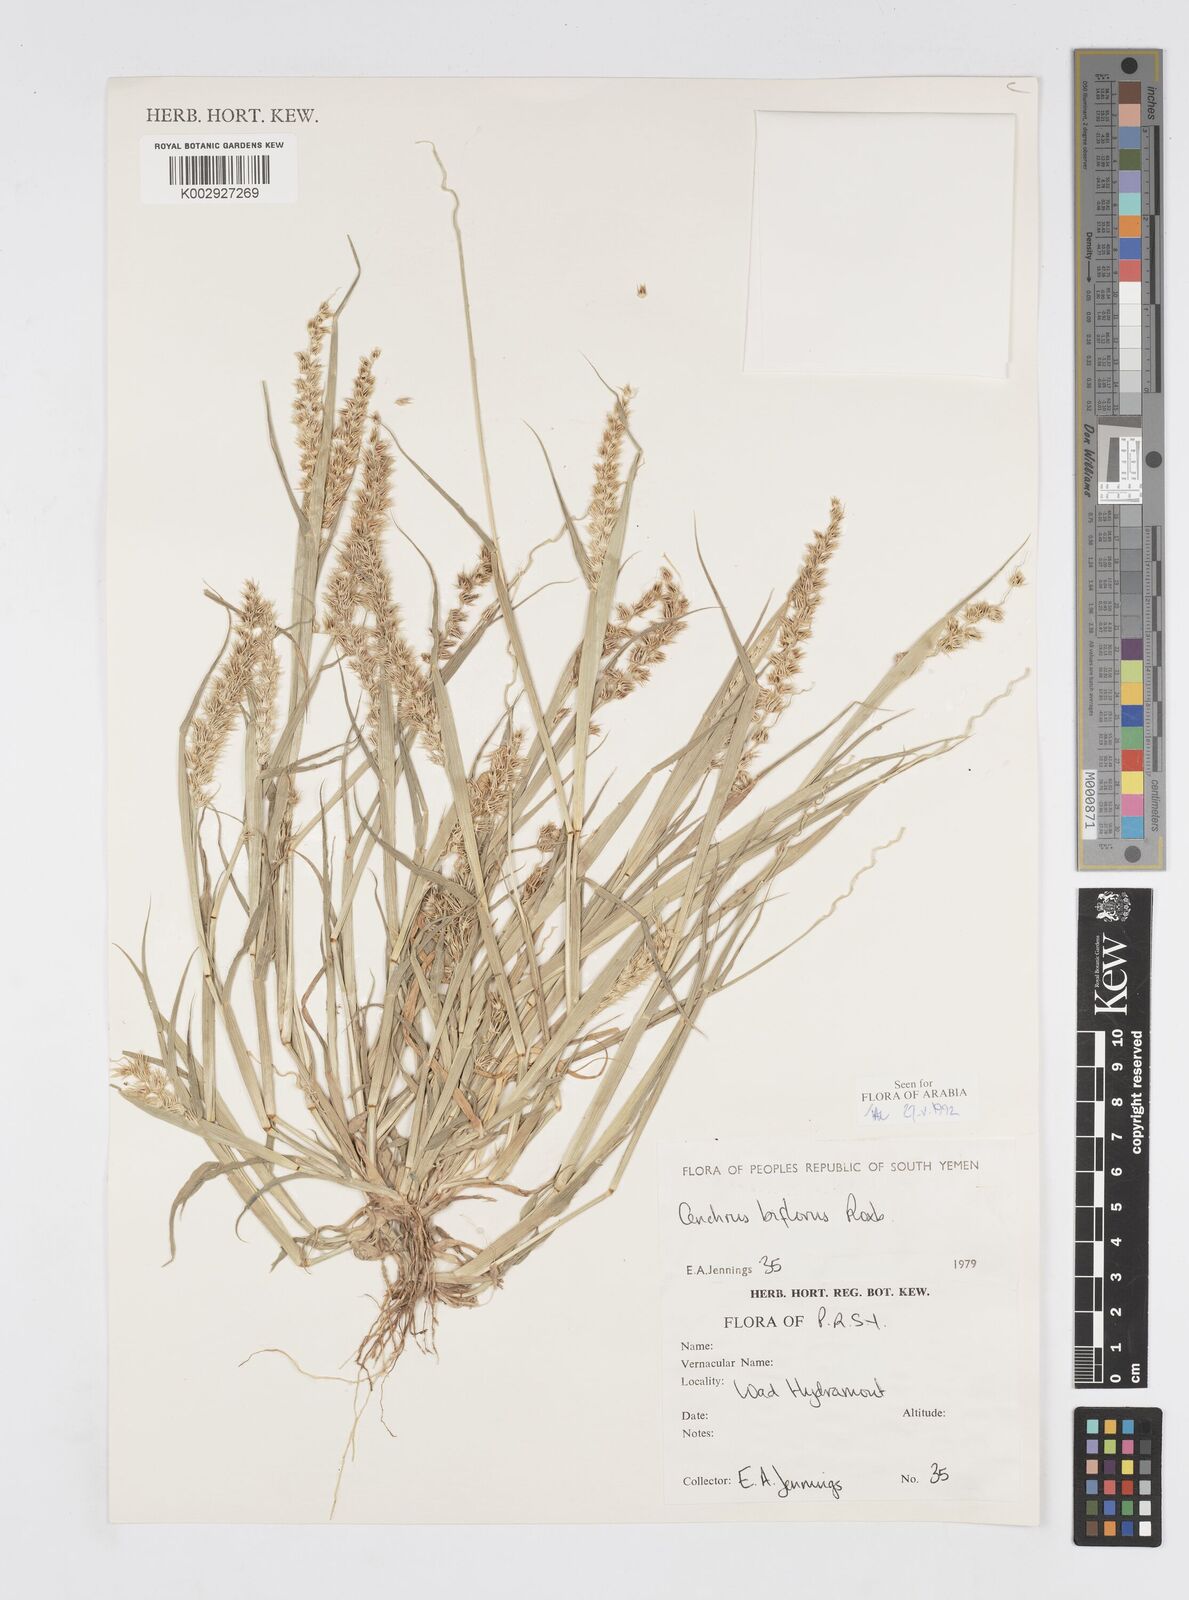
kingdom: Plantae
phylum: Tracheophyta
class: Liliopsida
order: Poales
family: Poaceae
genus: Cenchrus
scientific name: Cenchrus biflorus
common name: Indian sandbur
